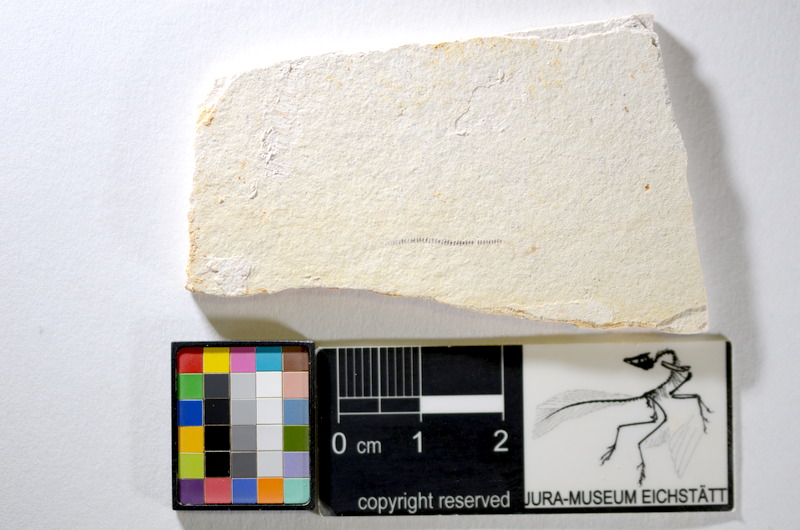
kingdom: Animalia
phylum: Chordata
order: Salmoniformes
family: Orthogonikleithridae
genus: Orthogonikleithrus
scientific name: Orthogonikleithrus hoelli
